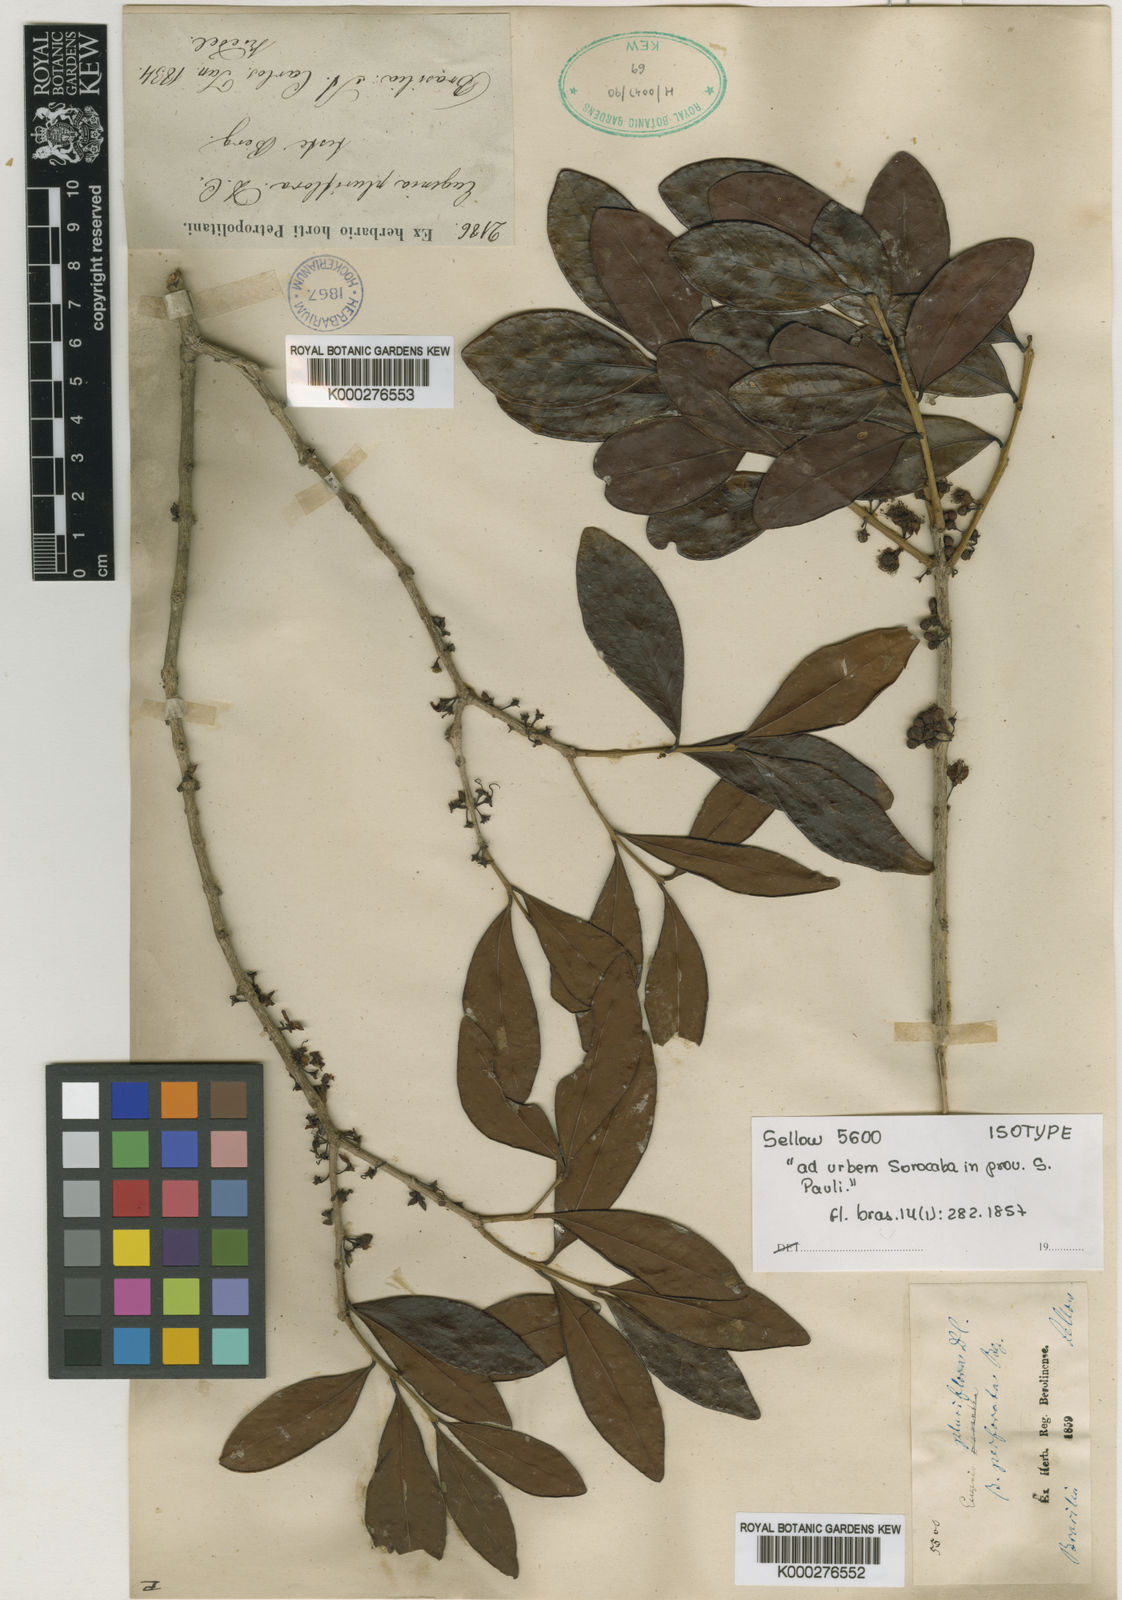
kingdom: Plantae
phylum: Tracheophyta
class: Magnoliopsida
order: Myrtales
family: Myrtaceae
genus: Eugenia
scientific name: Eugenia pluriflora
